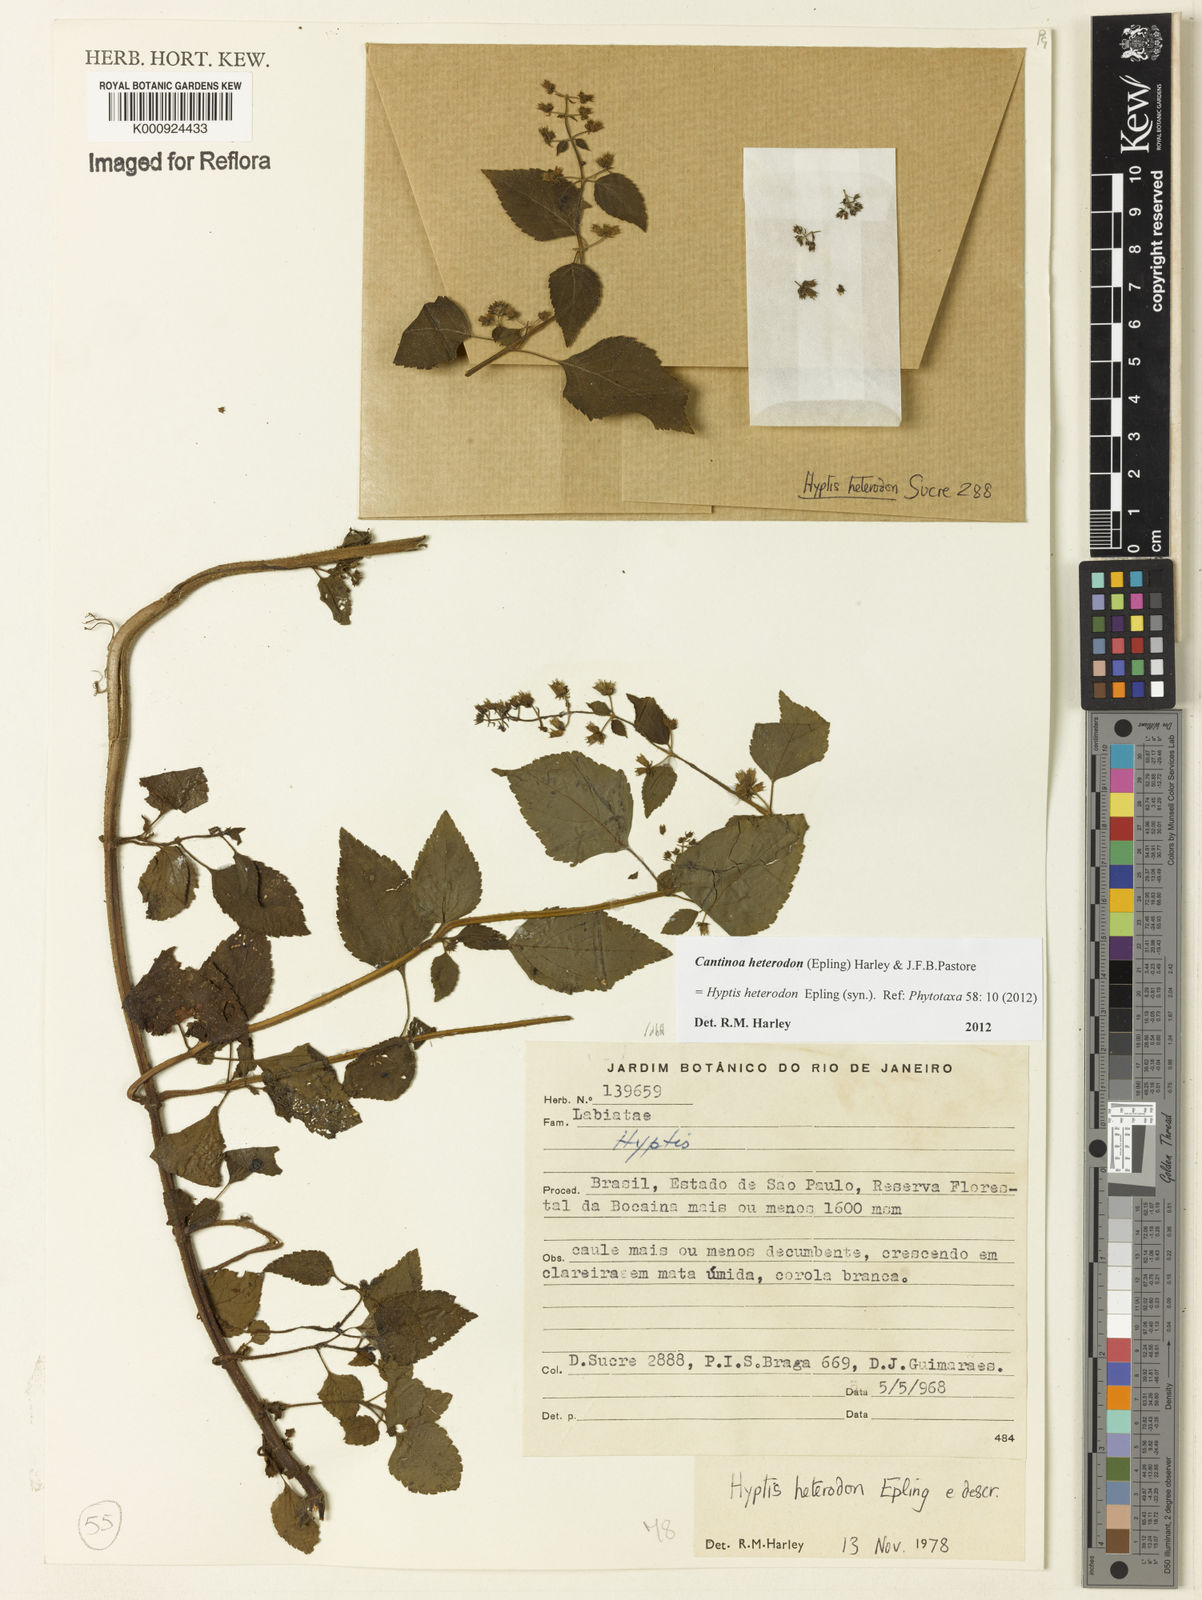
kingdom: Plantae
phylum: Tracheophyta
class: Magnoliopsida
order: Lamiales
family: Lamiaceae
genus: Cantinoa
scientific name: Cantinoa heterodon
